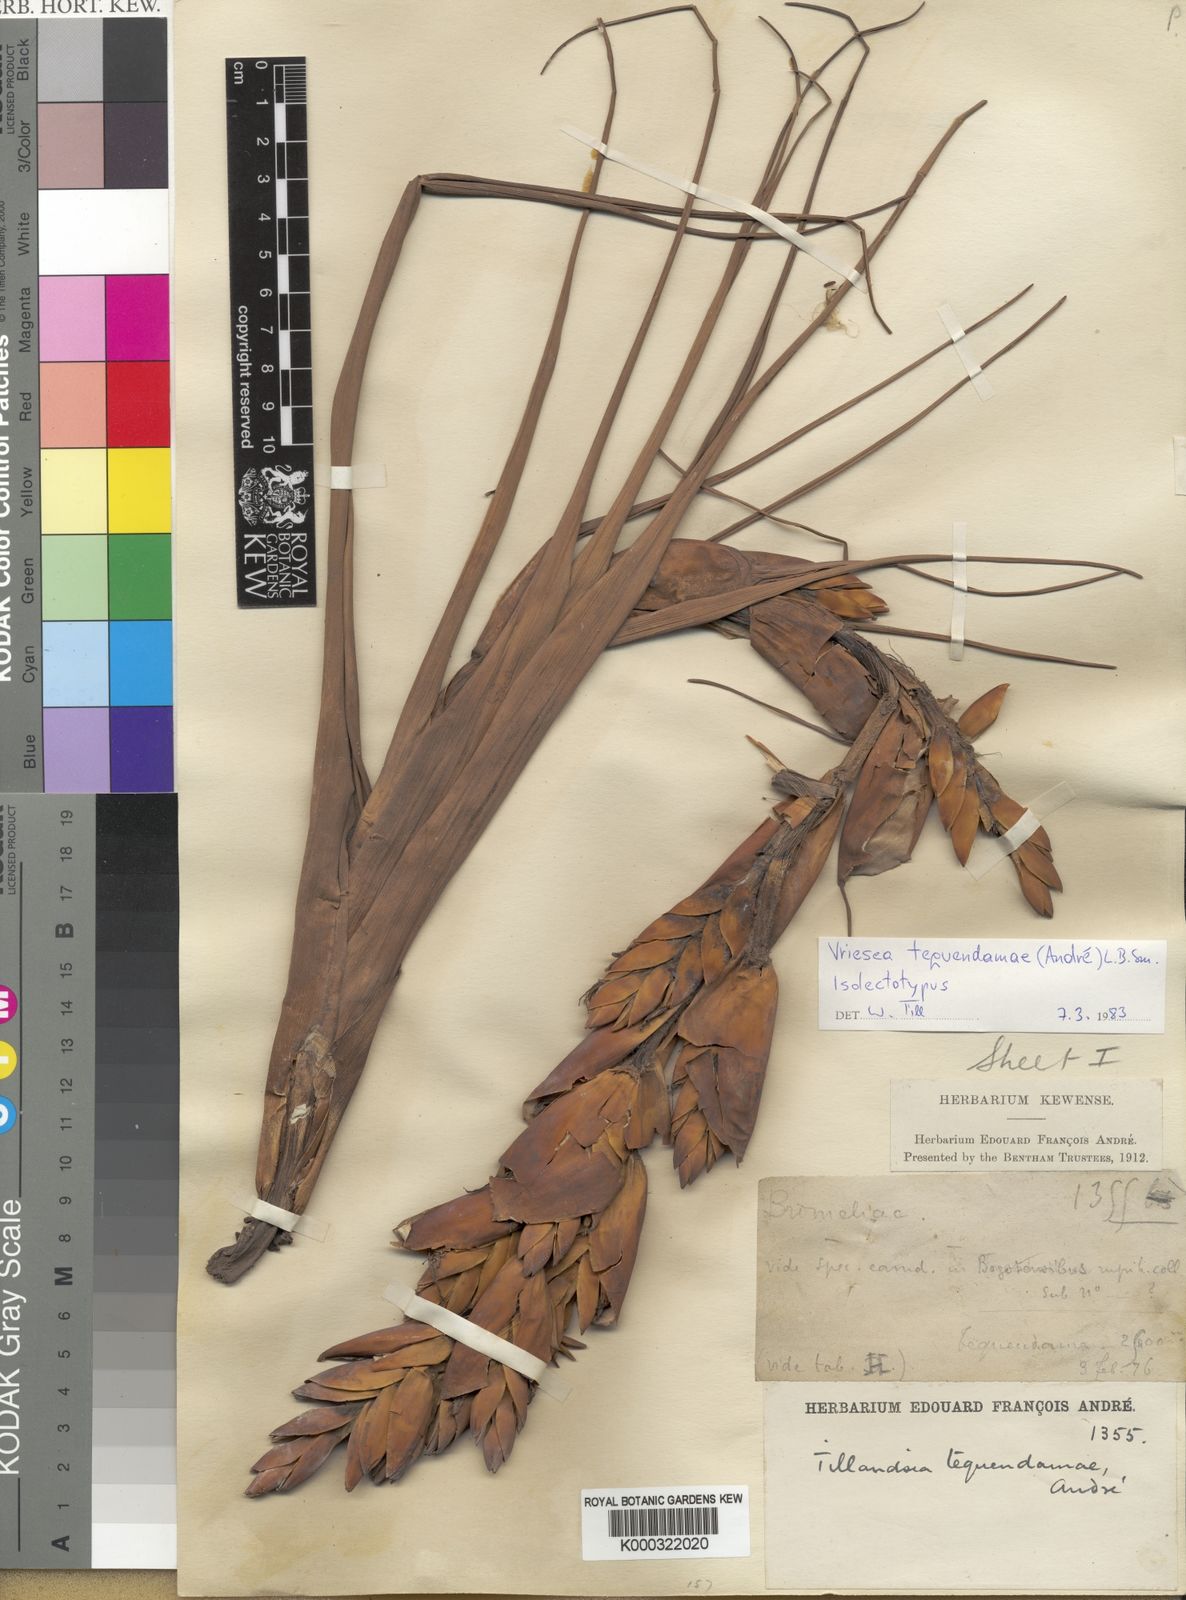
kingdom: Plantae
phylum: Tracheophyta
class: Liliopsida
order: Poales
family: Bromeliaceae
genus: Vriesea
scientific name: Vriesea
